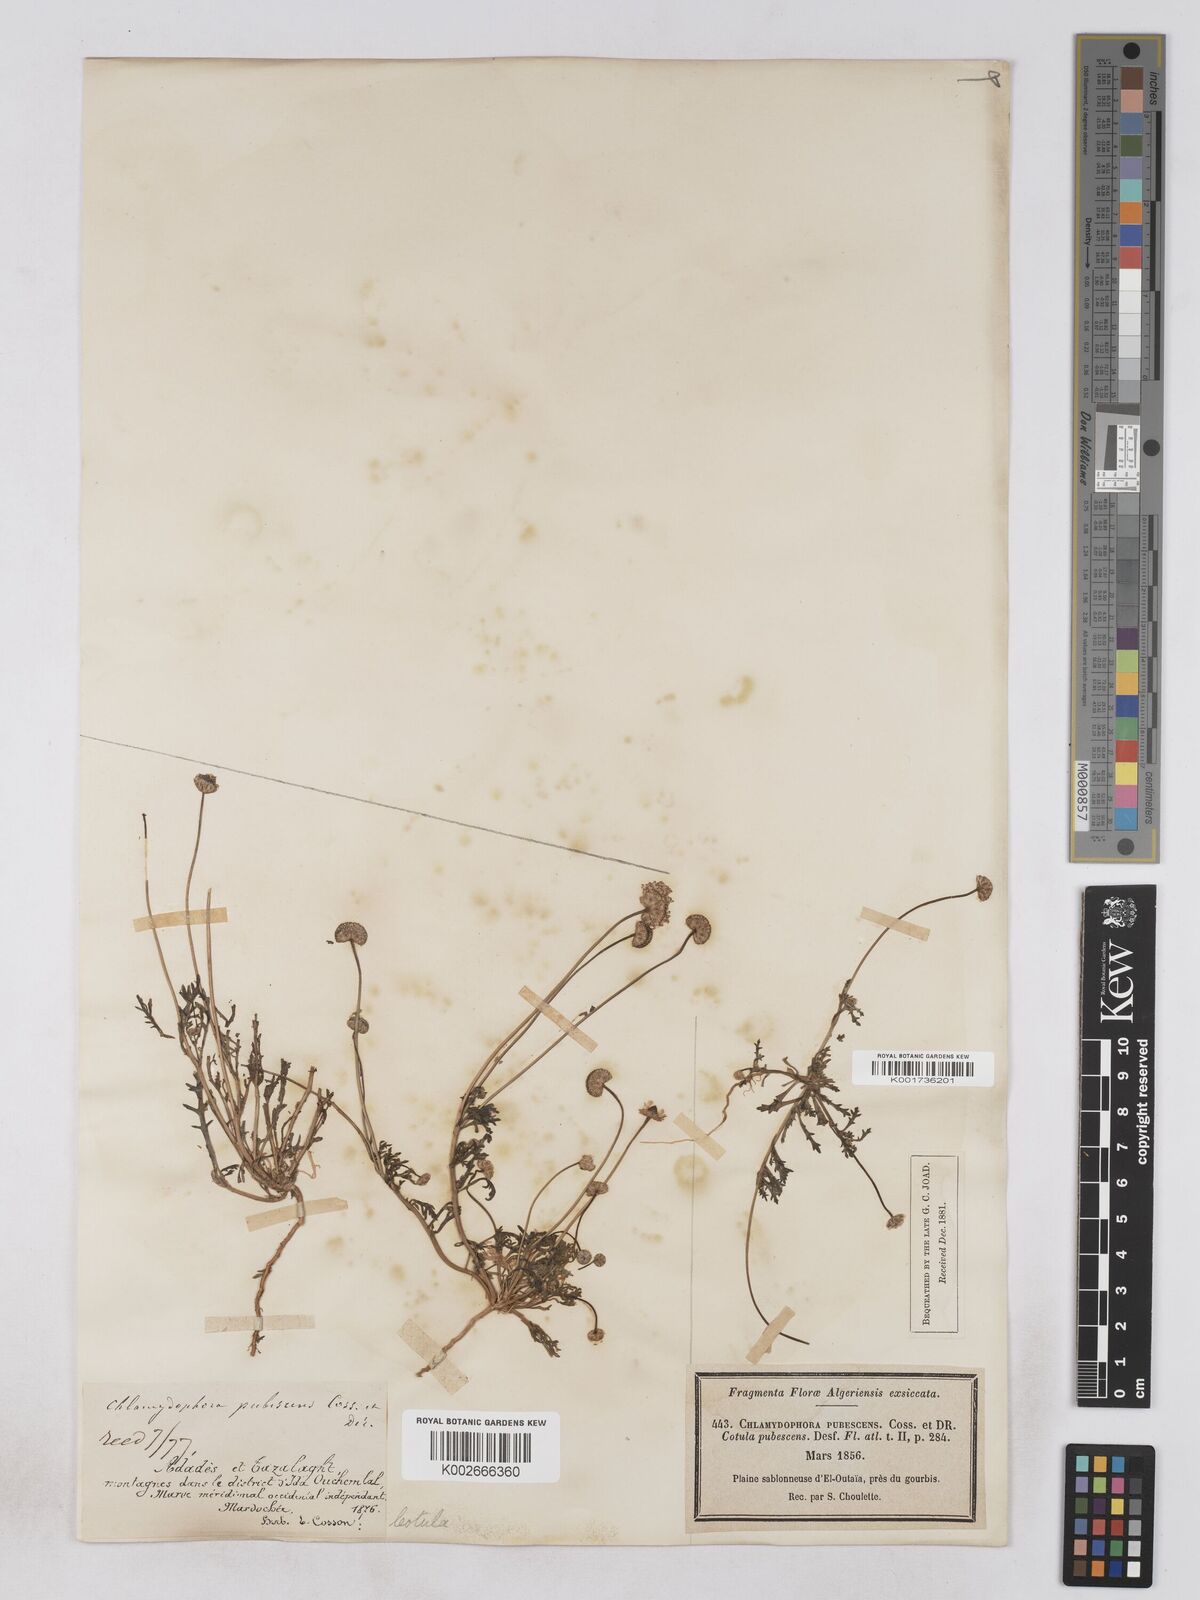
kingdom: Plantae
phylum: Tracheophyta
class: Magnoliopsida
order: Asterales
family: Asteraceae
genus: Otoglyphis
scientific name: Otoglyphis pubescens
